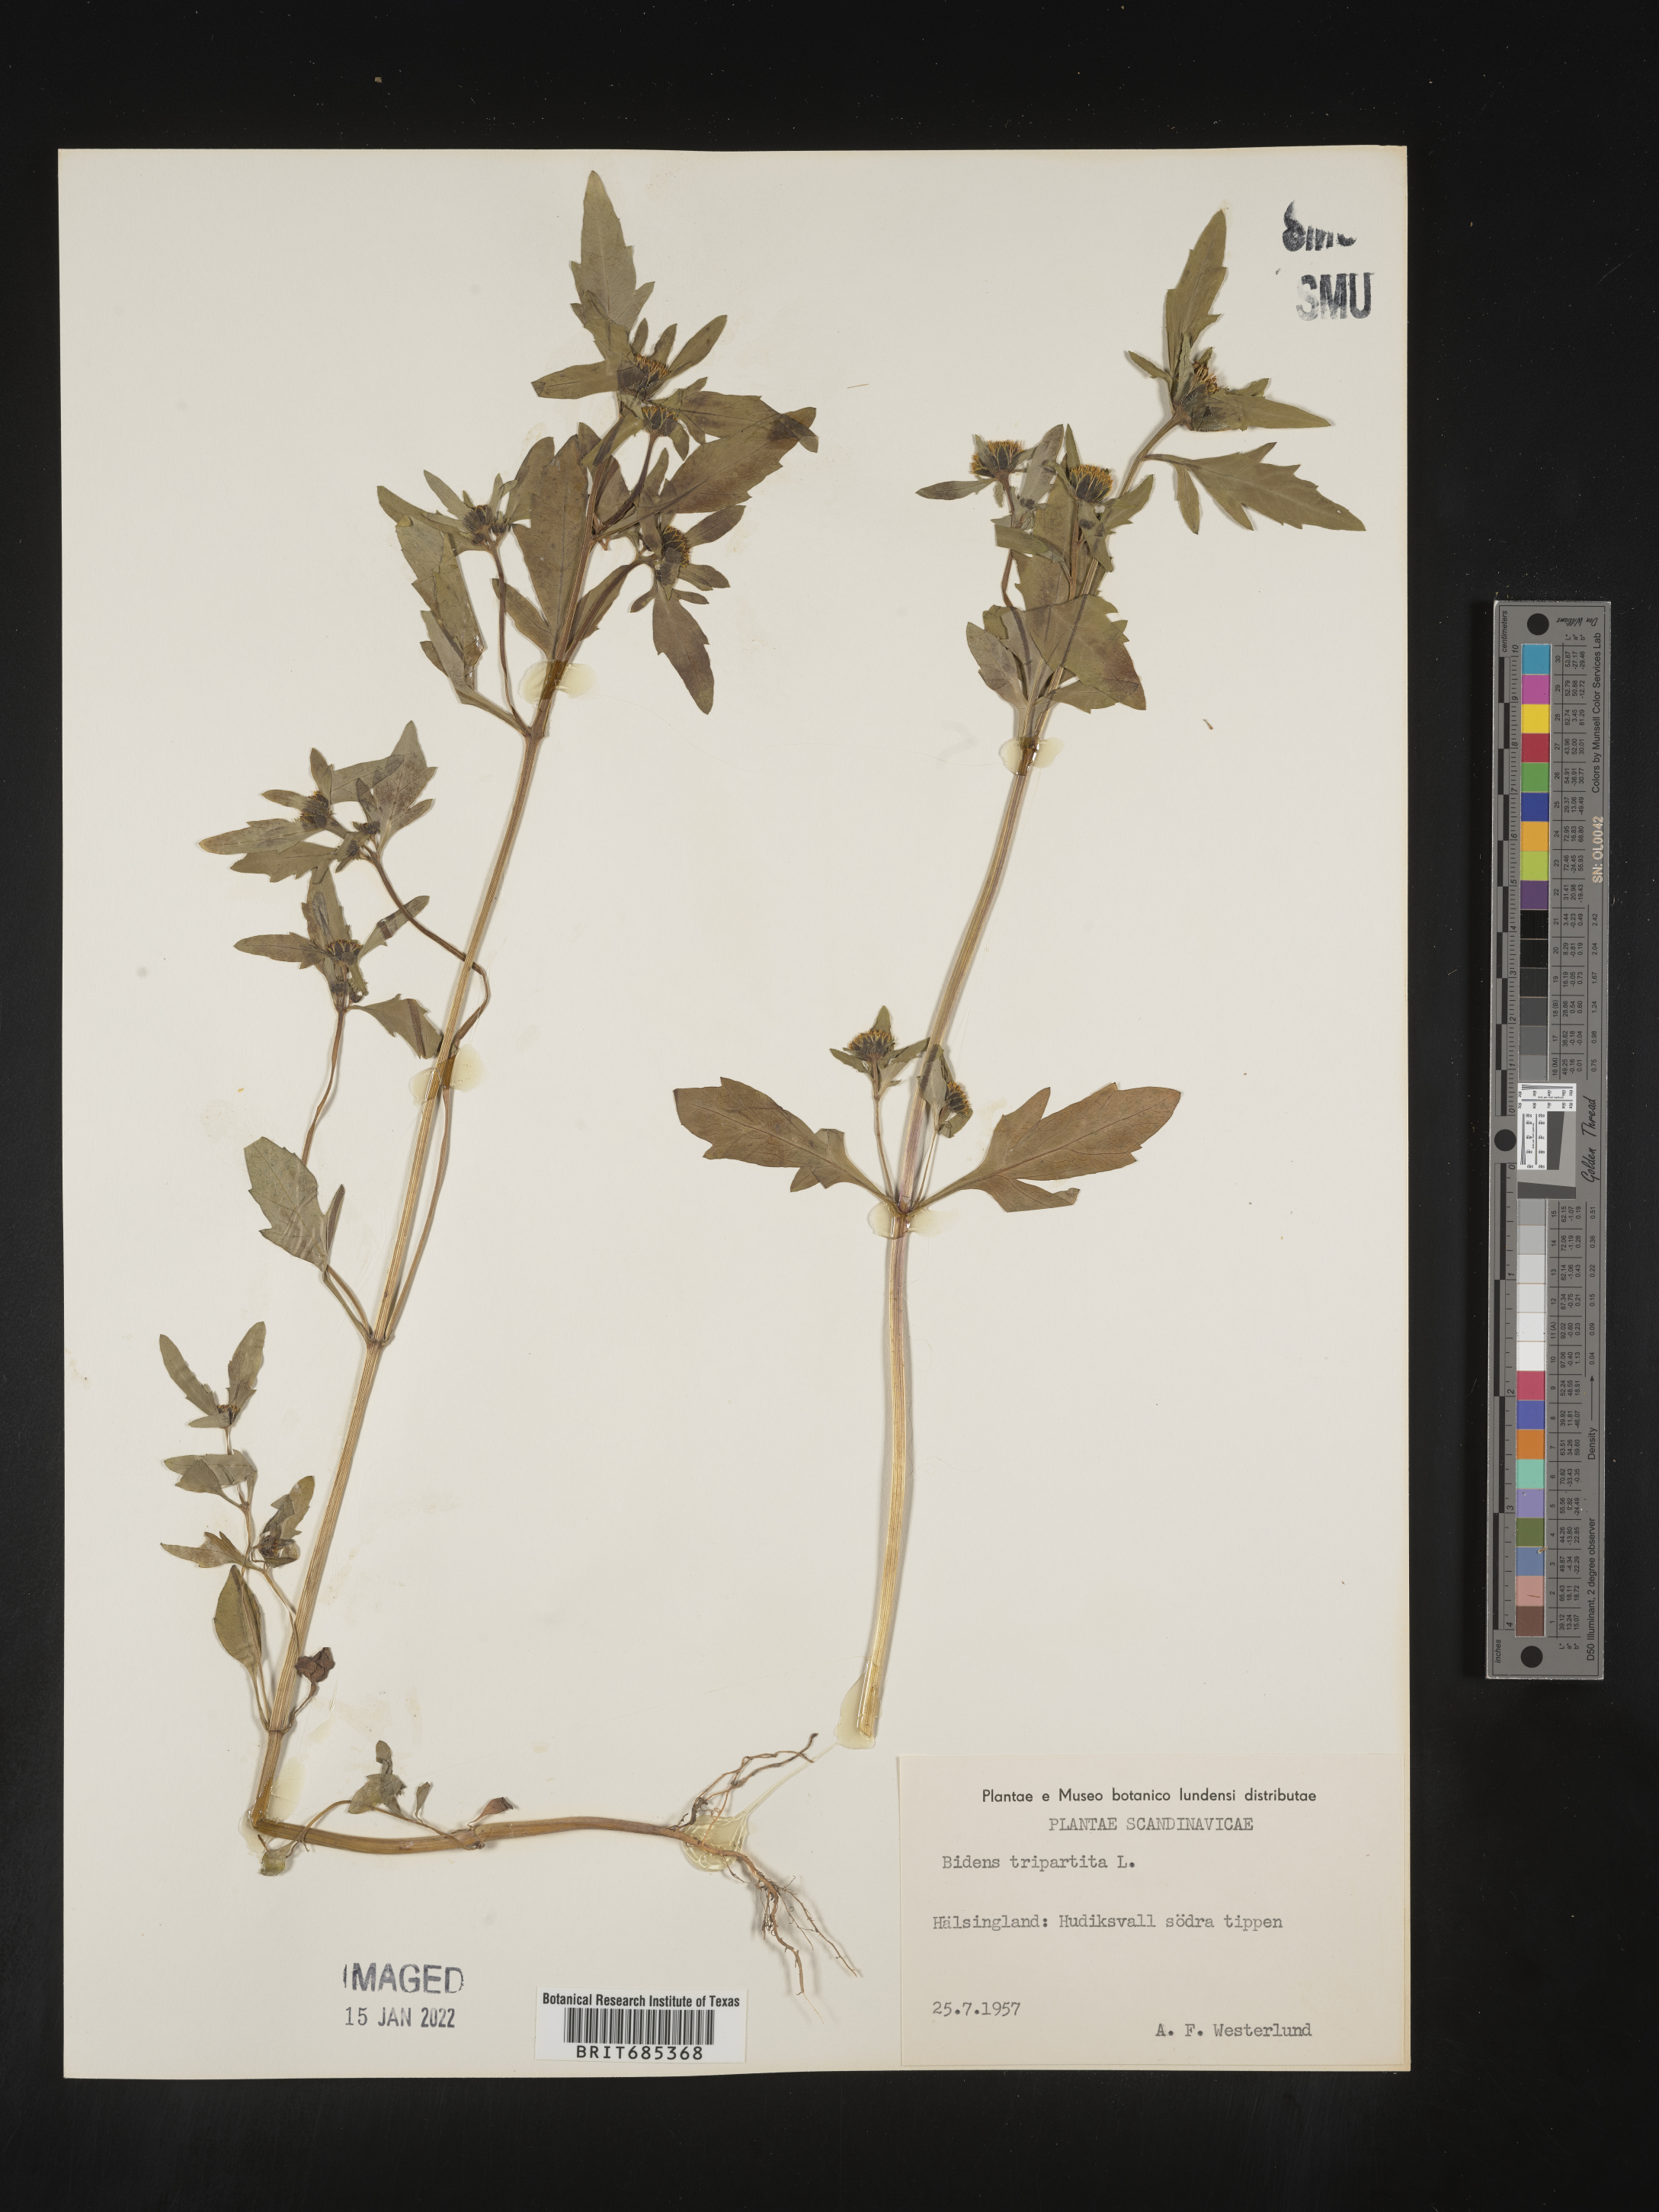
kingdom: Plantae
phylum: Tracheophyta
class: Magnoliopsida
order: Asterales
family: Asteraceae
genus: Bidens
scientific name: Bidens
